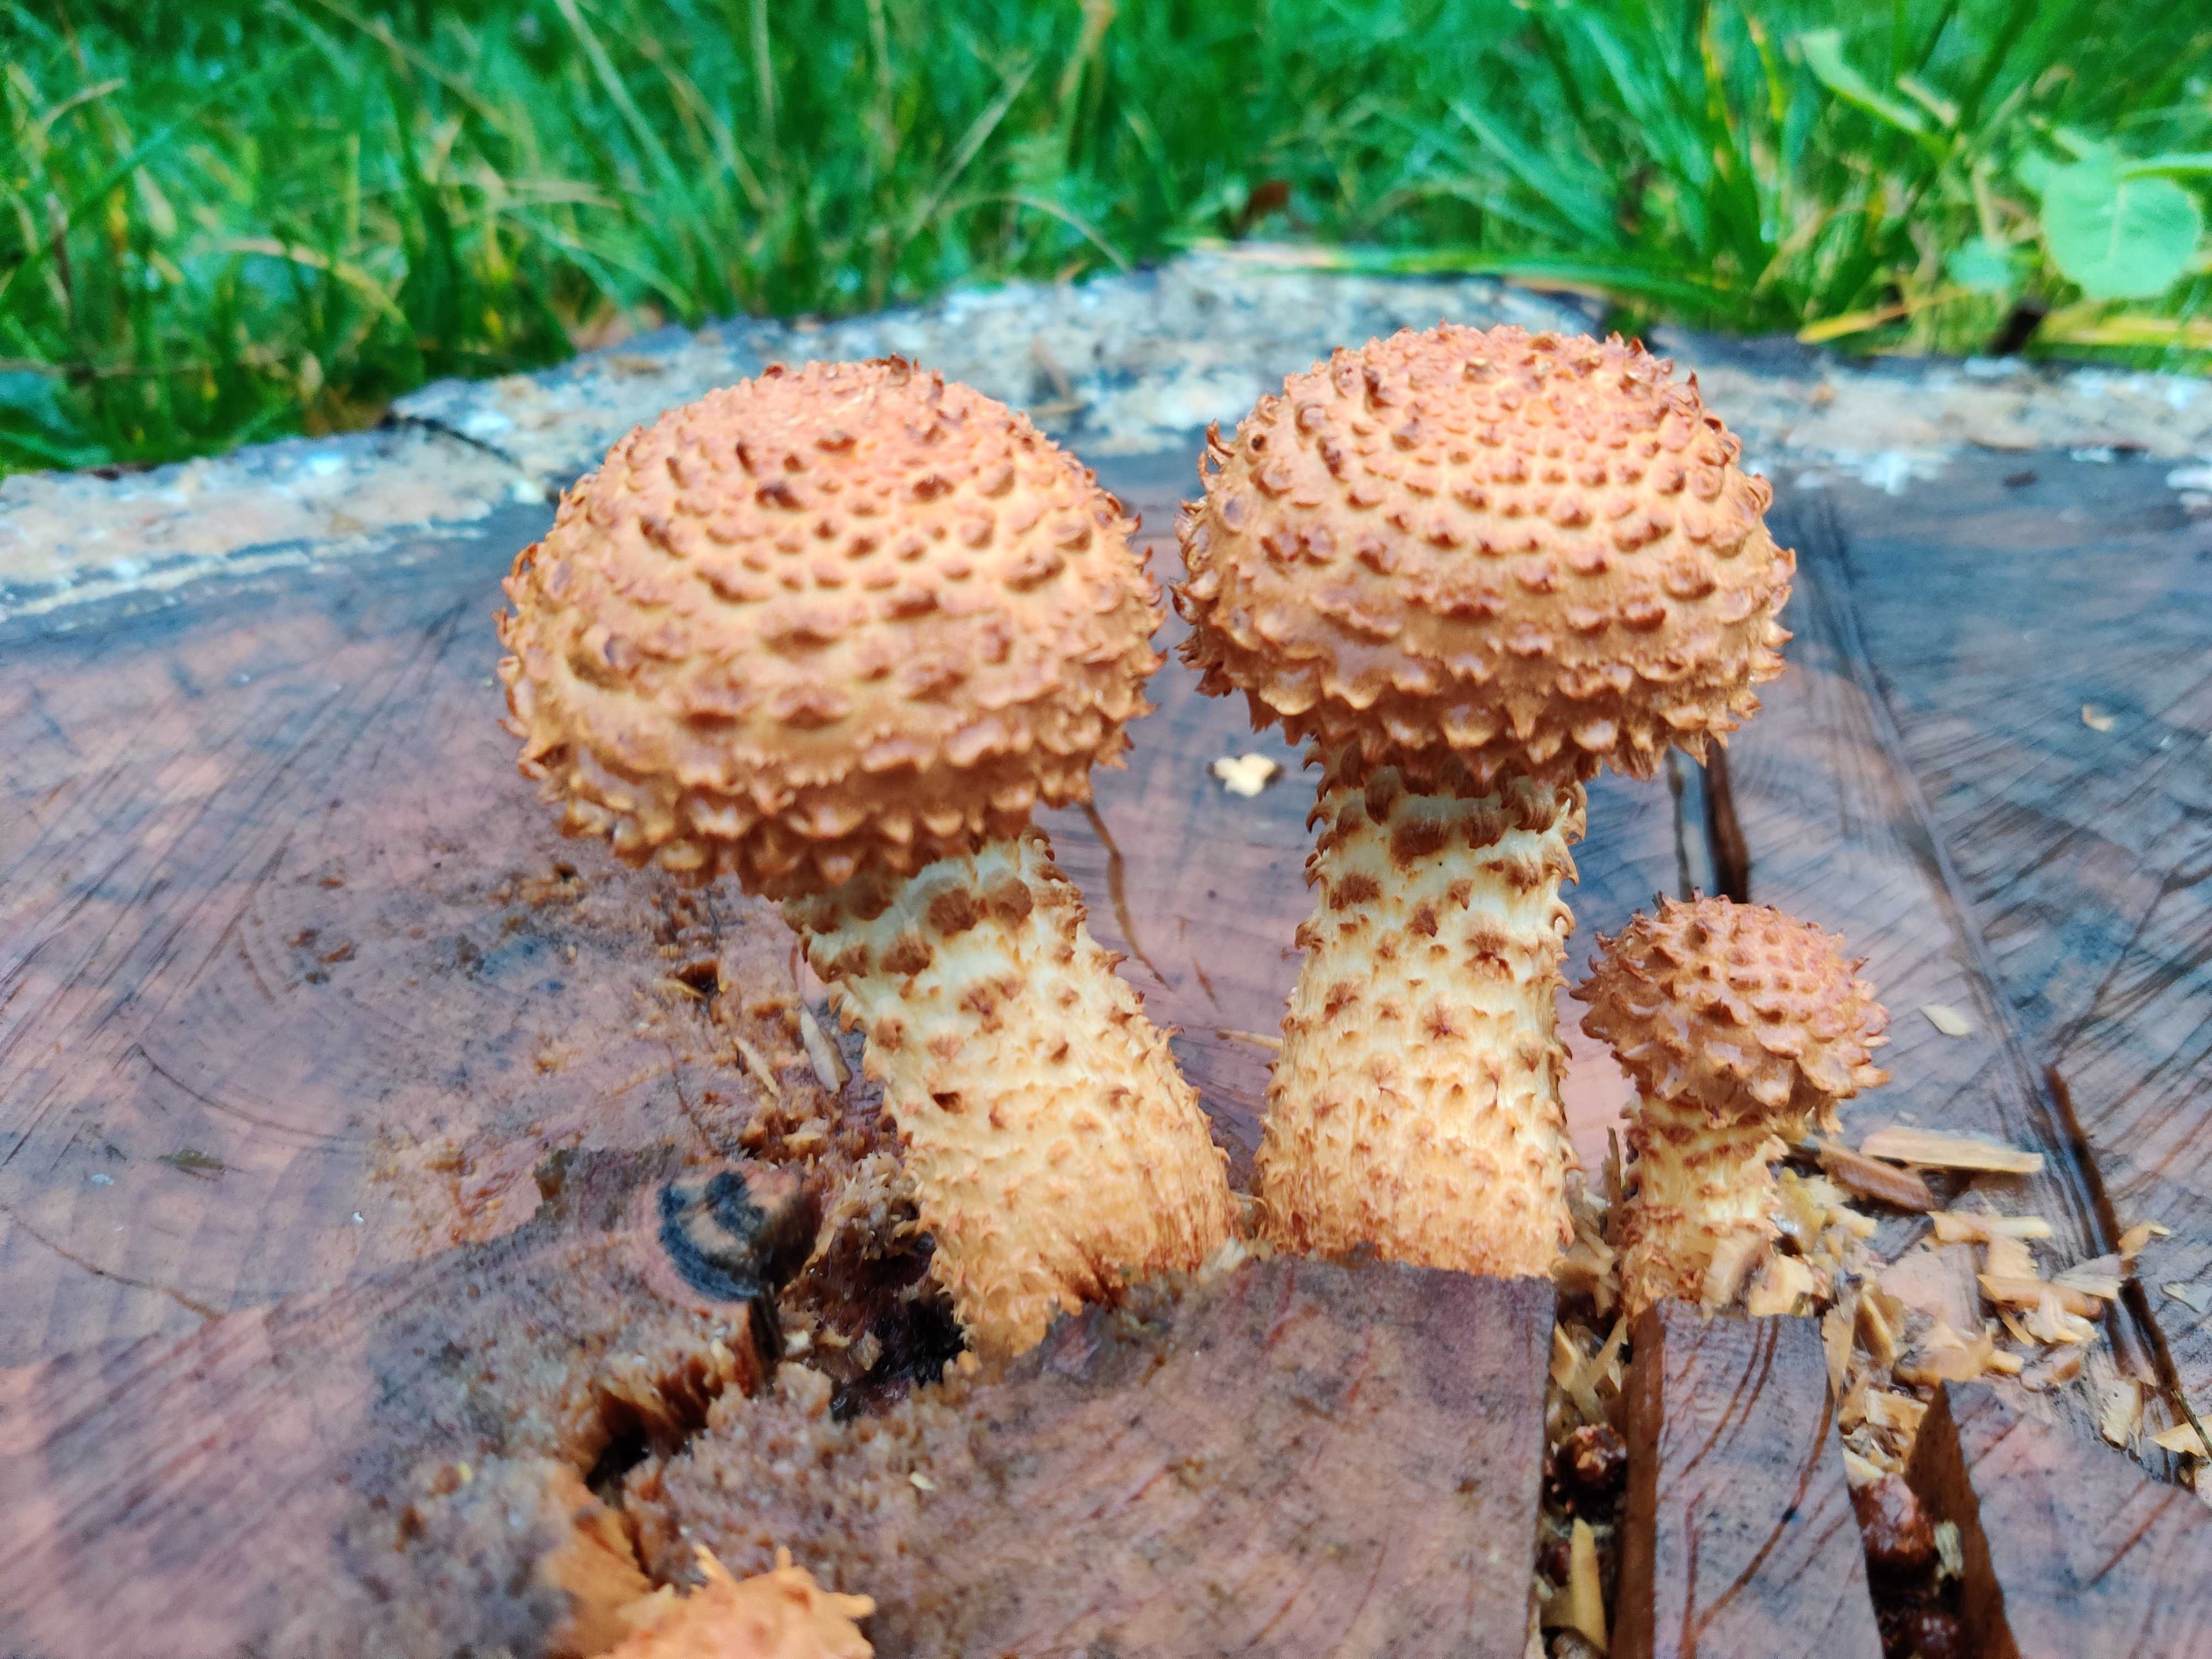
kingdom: Fungi
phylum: Basidiomycota
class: Agaricomycetes
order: Agaricales
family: Strophariaceae
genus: Pholiota
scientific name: Pholiota squarrosa
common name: krumskællet skælhat
